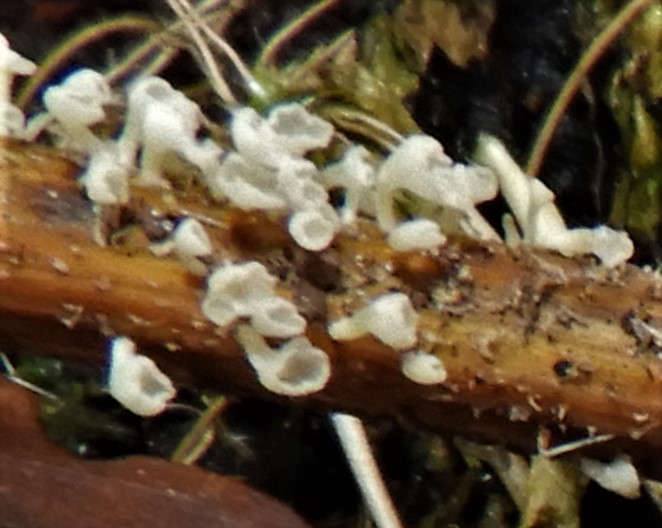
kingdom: Fungi
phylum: Basidiomycota
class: Agaricomycetes
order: Agaricales
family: Marasmiaceae
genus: Calyptella
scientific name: Calyptella capula
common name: hvidlig nældehue
